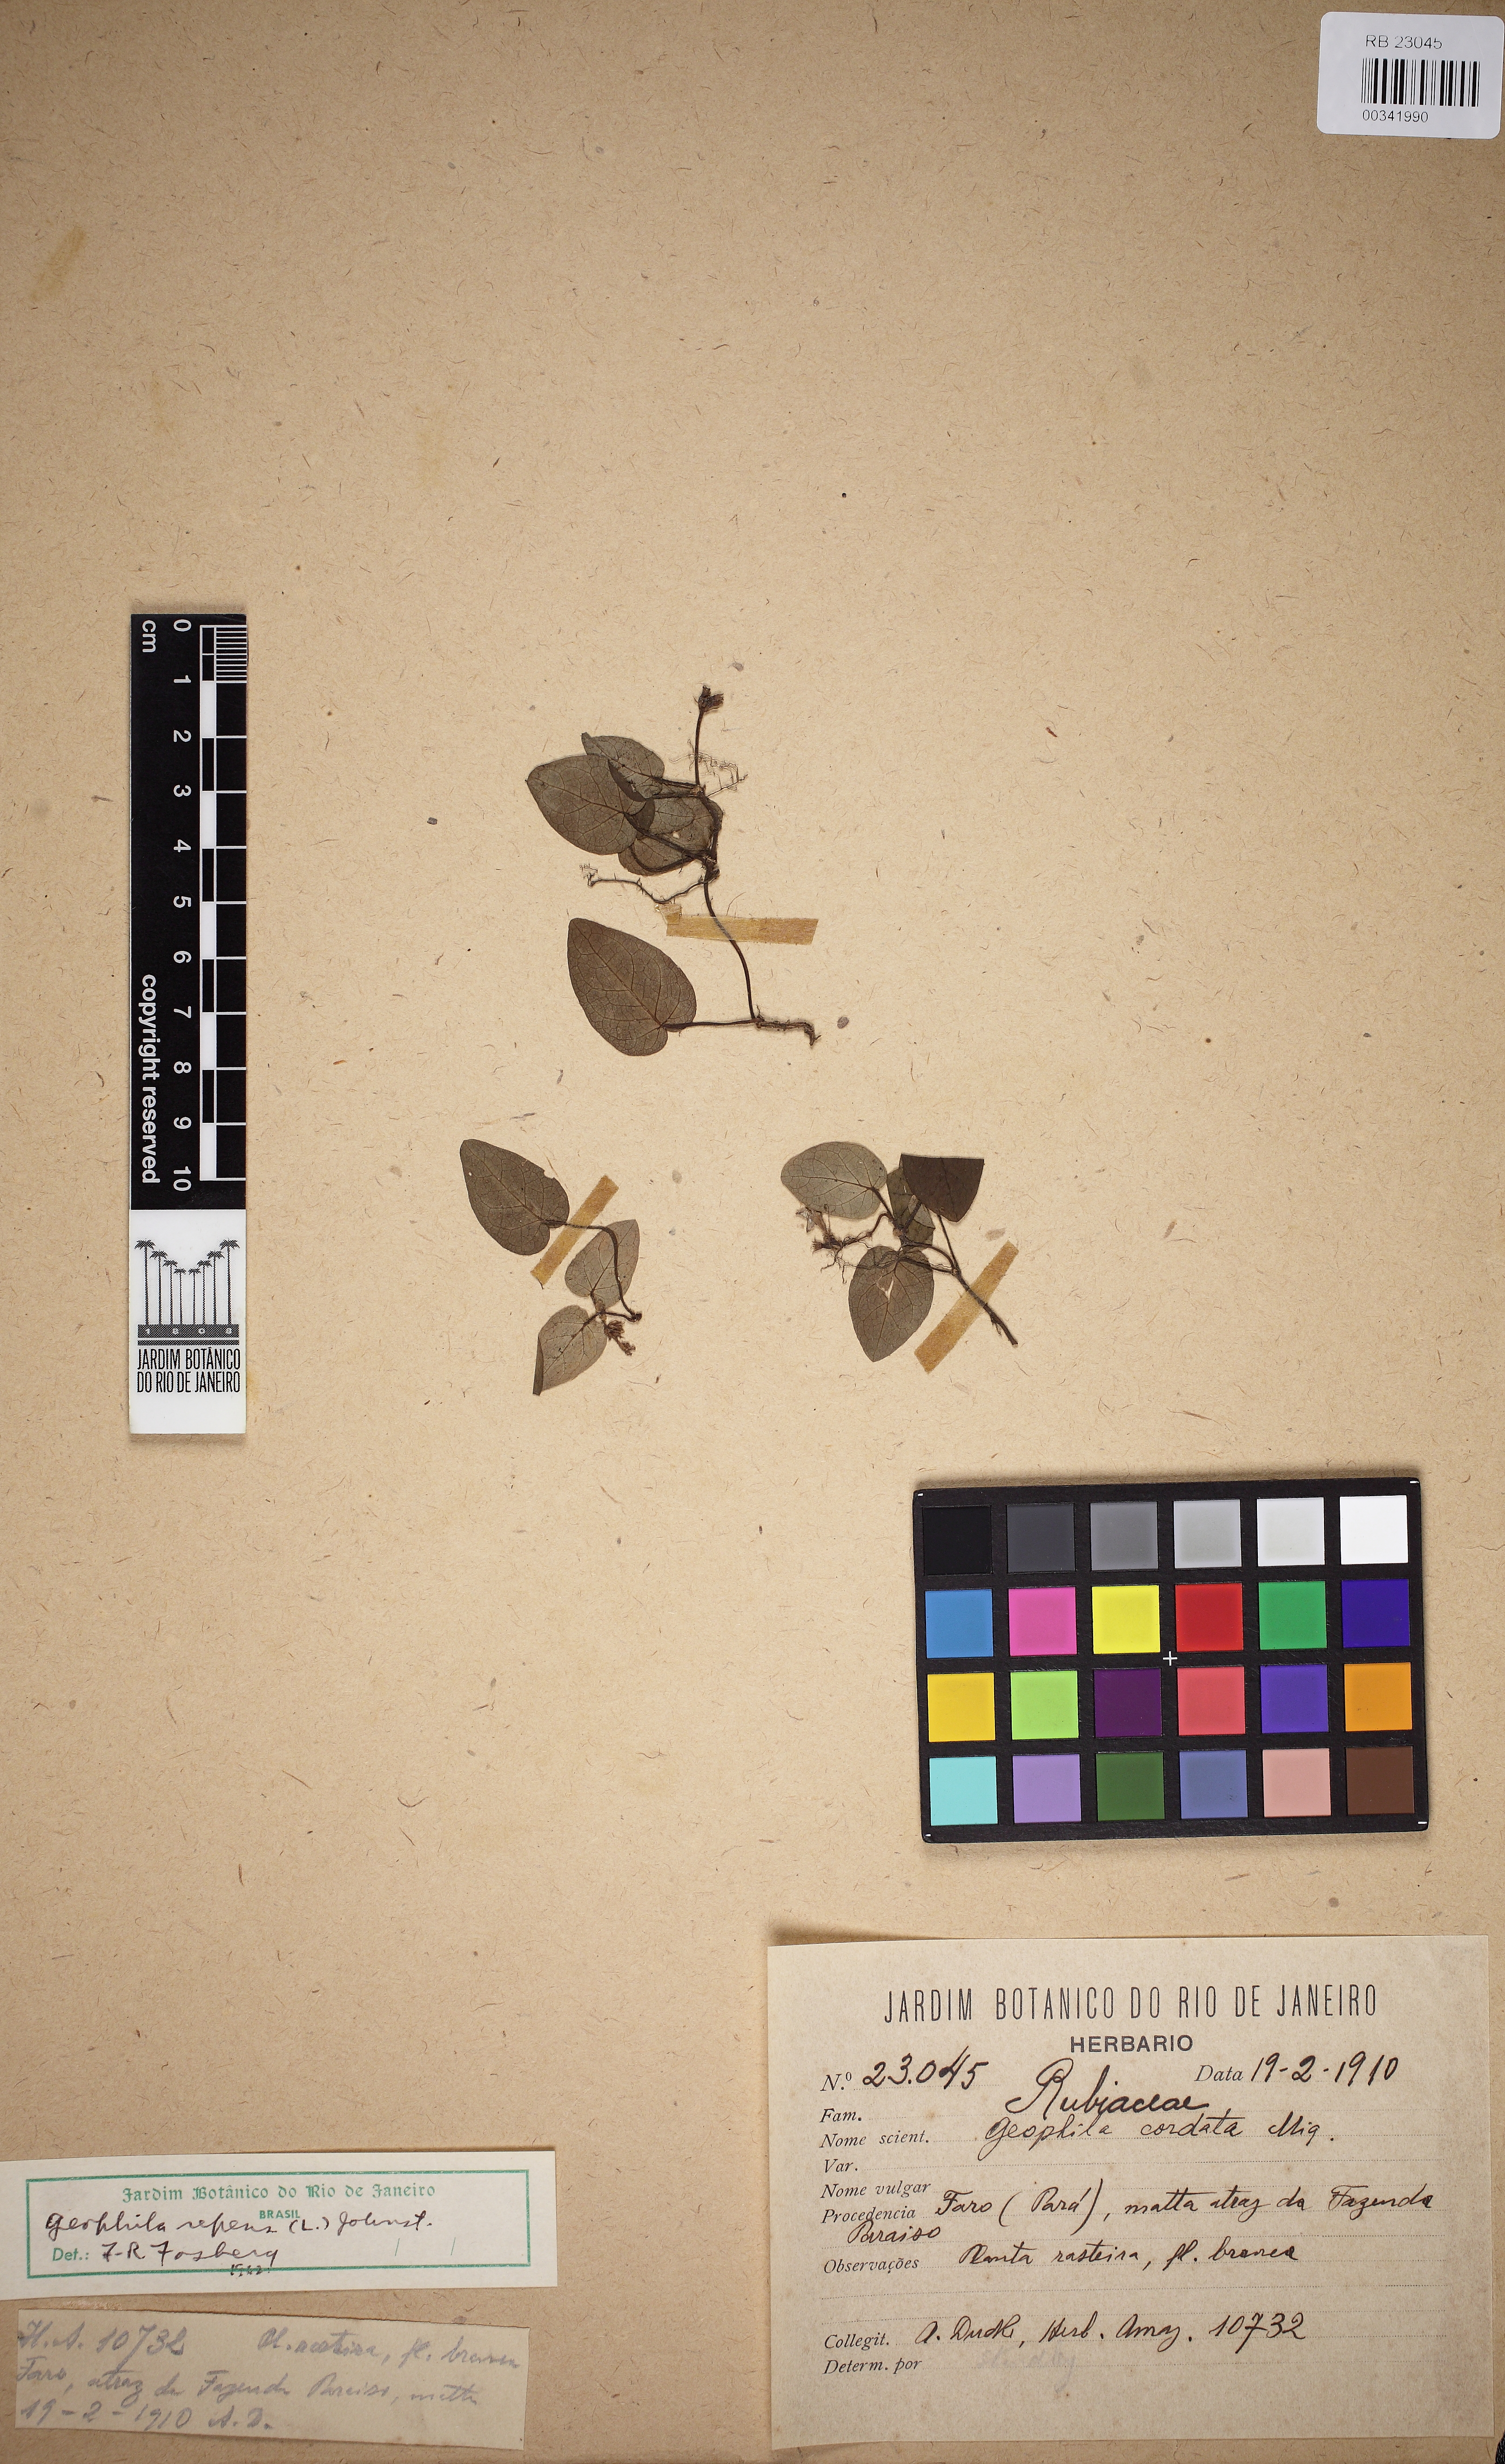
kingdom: Plantae
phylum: Tracheophyta
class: Magnoliopsida
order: Gentianales
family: Rubiaceae
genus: Geophila
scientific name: Geophila repens
